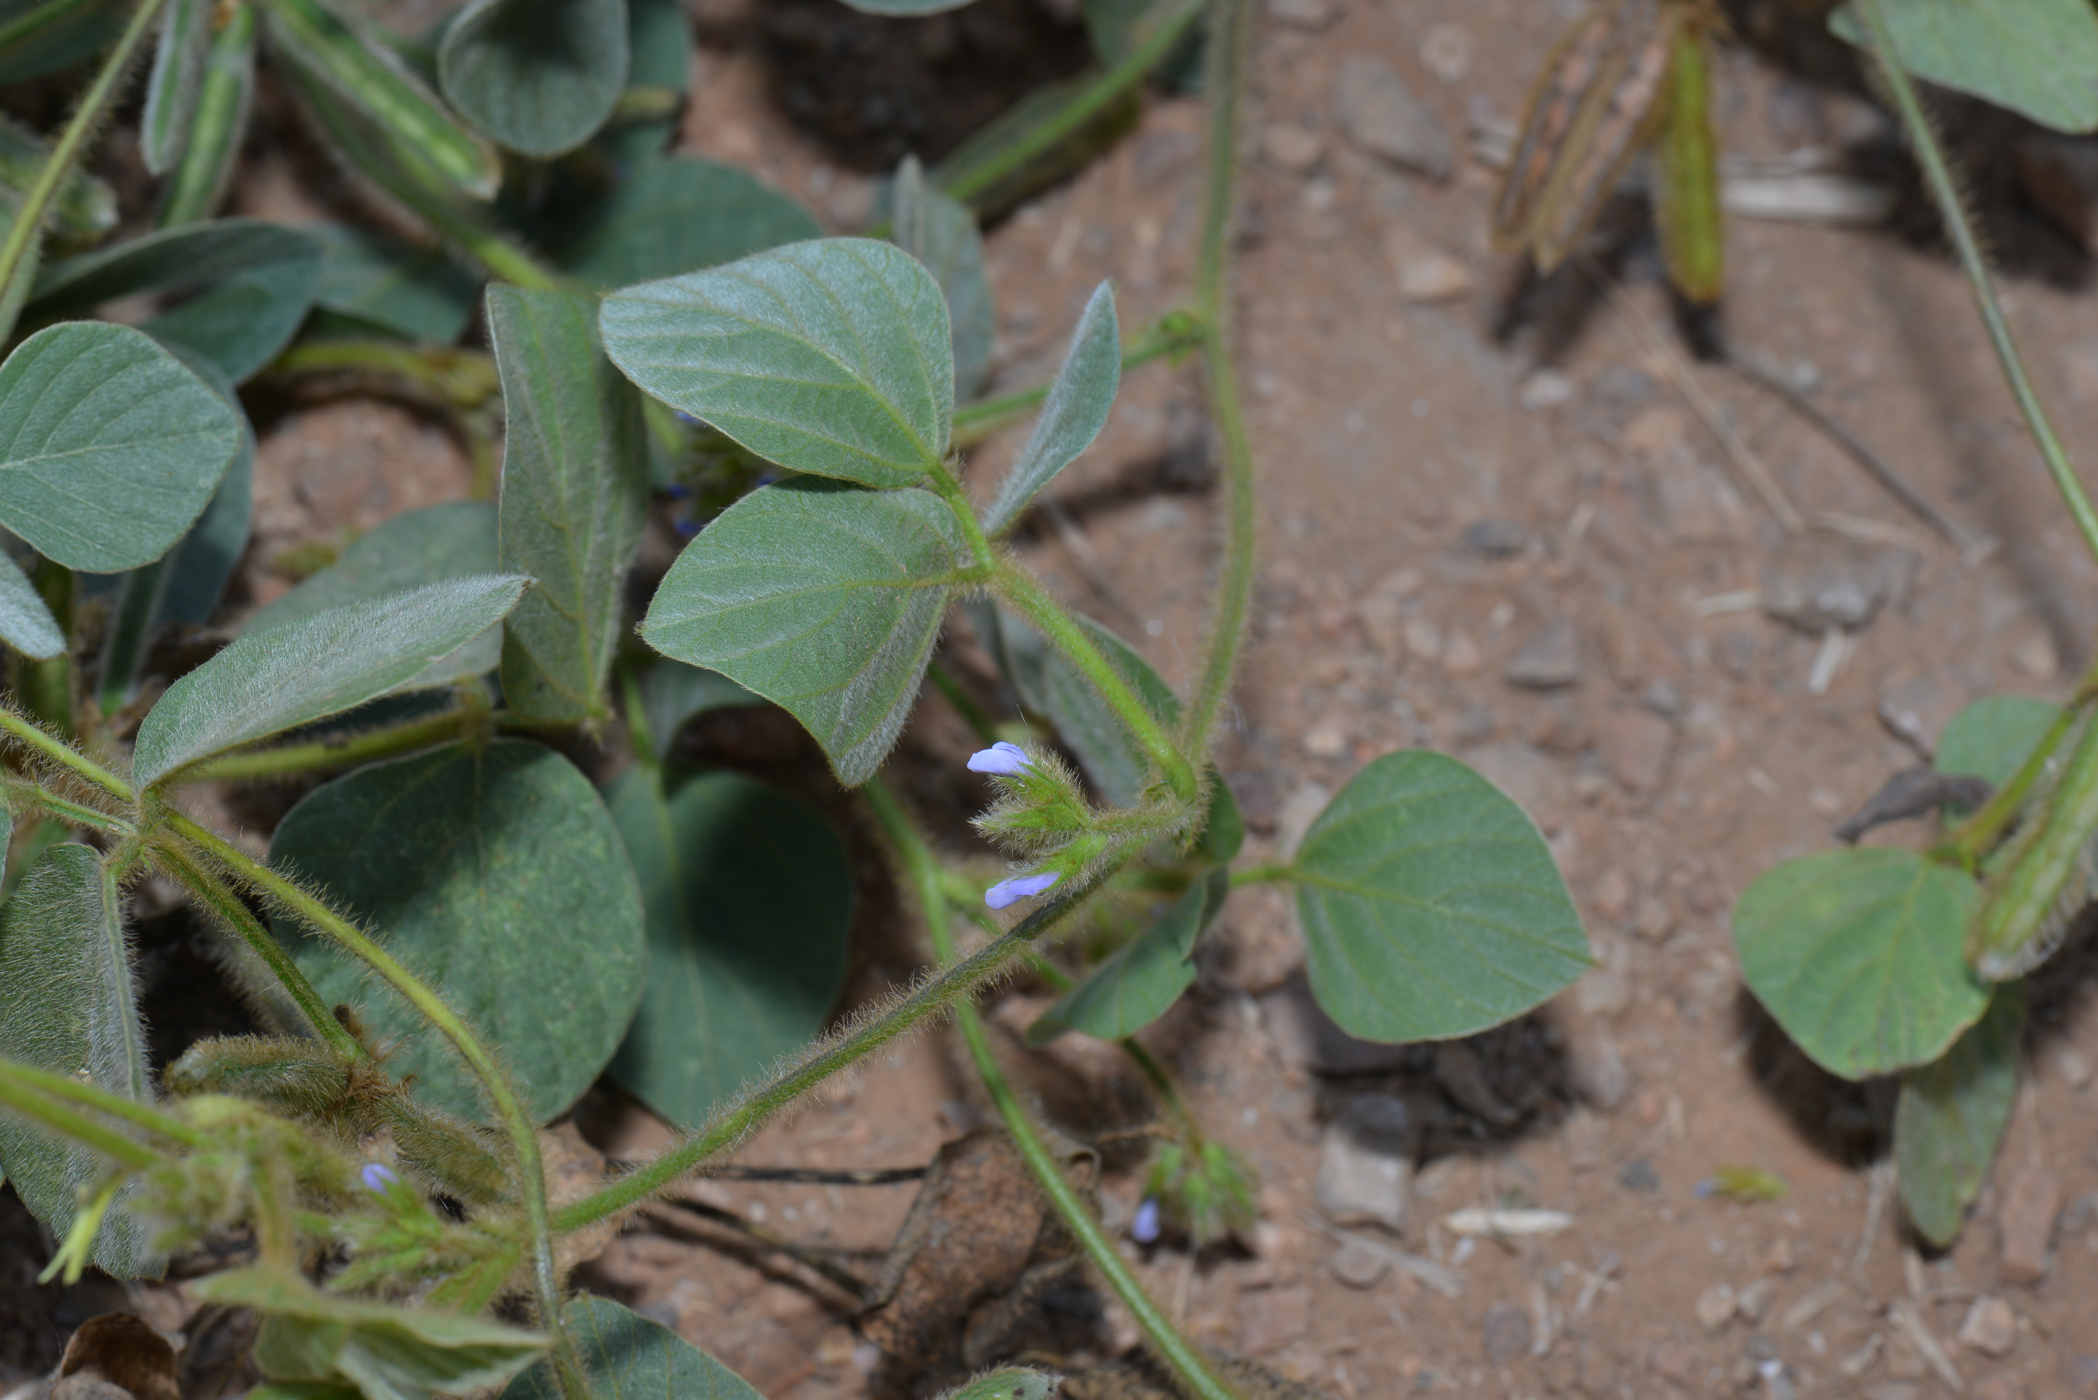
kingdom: Plantae
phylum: Tracheophyta
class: Magnoliopsida
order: Fabales
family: Fabaceae
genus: Calopogonium
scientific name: Calopogonium mucunoides
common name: Calopo
